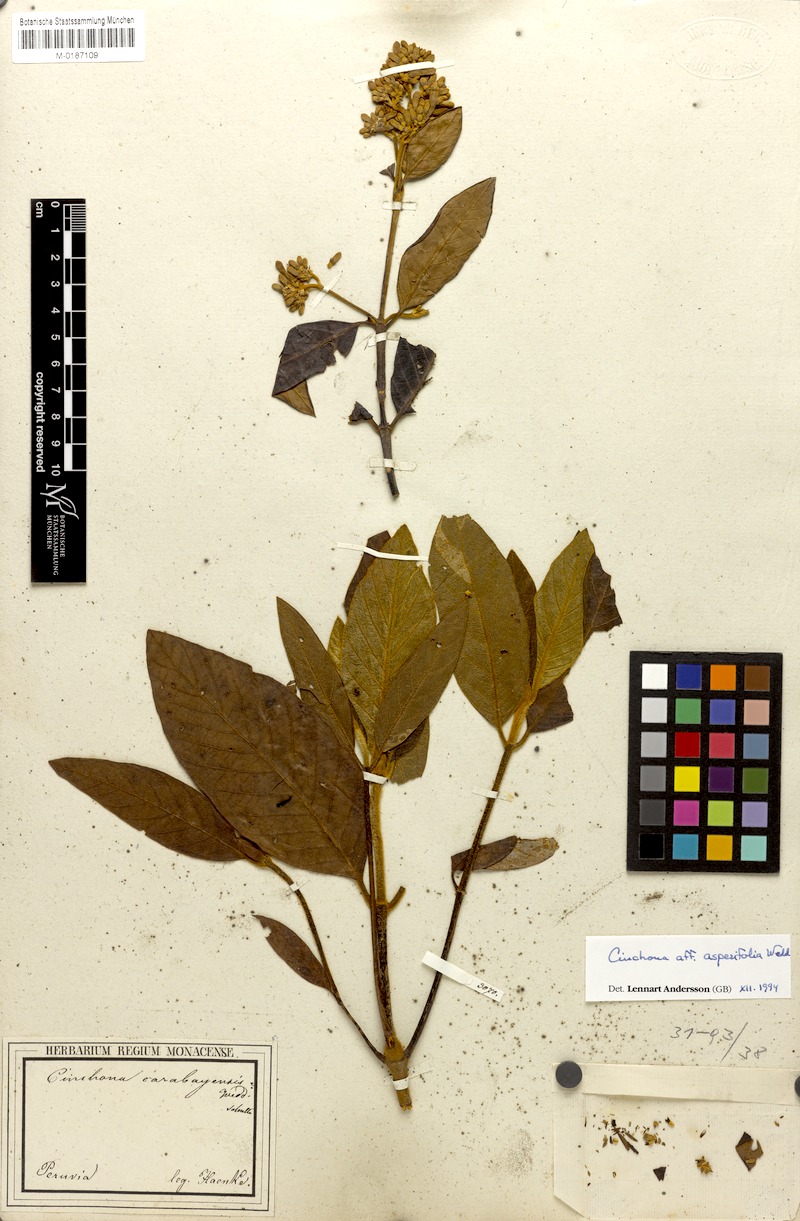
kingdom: Plantae
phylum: Tracheophyta
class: Magnoliopsida
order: Gentianales
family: Rubiaceae
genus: Cinchona
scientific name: Cinchona asperifolia
